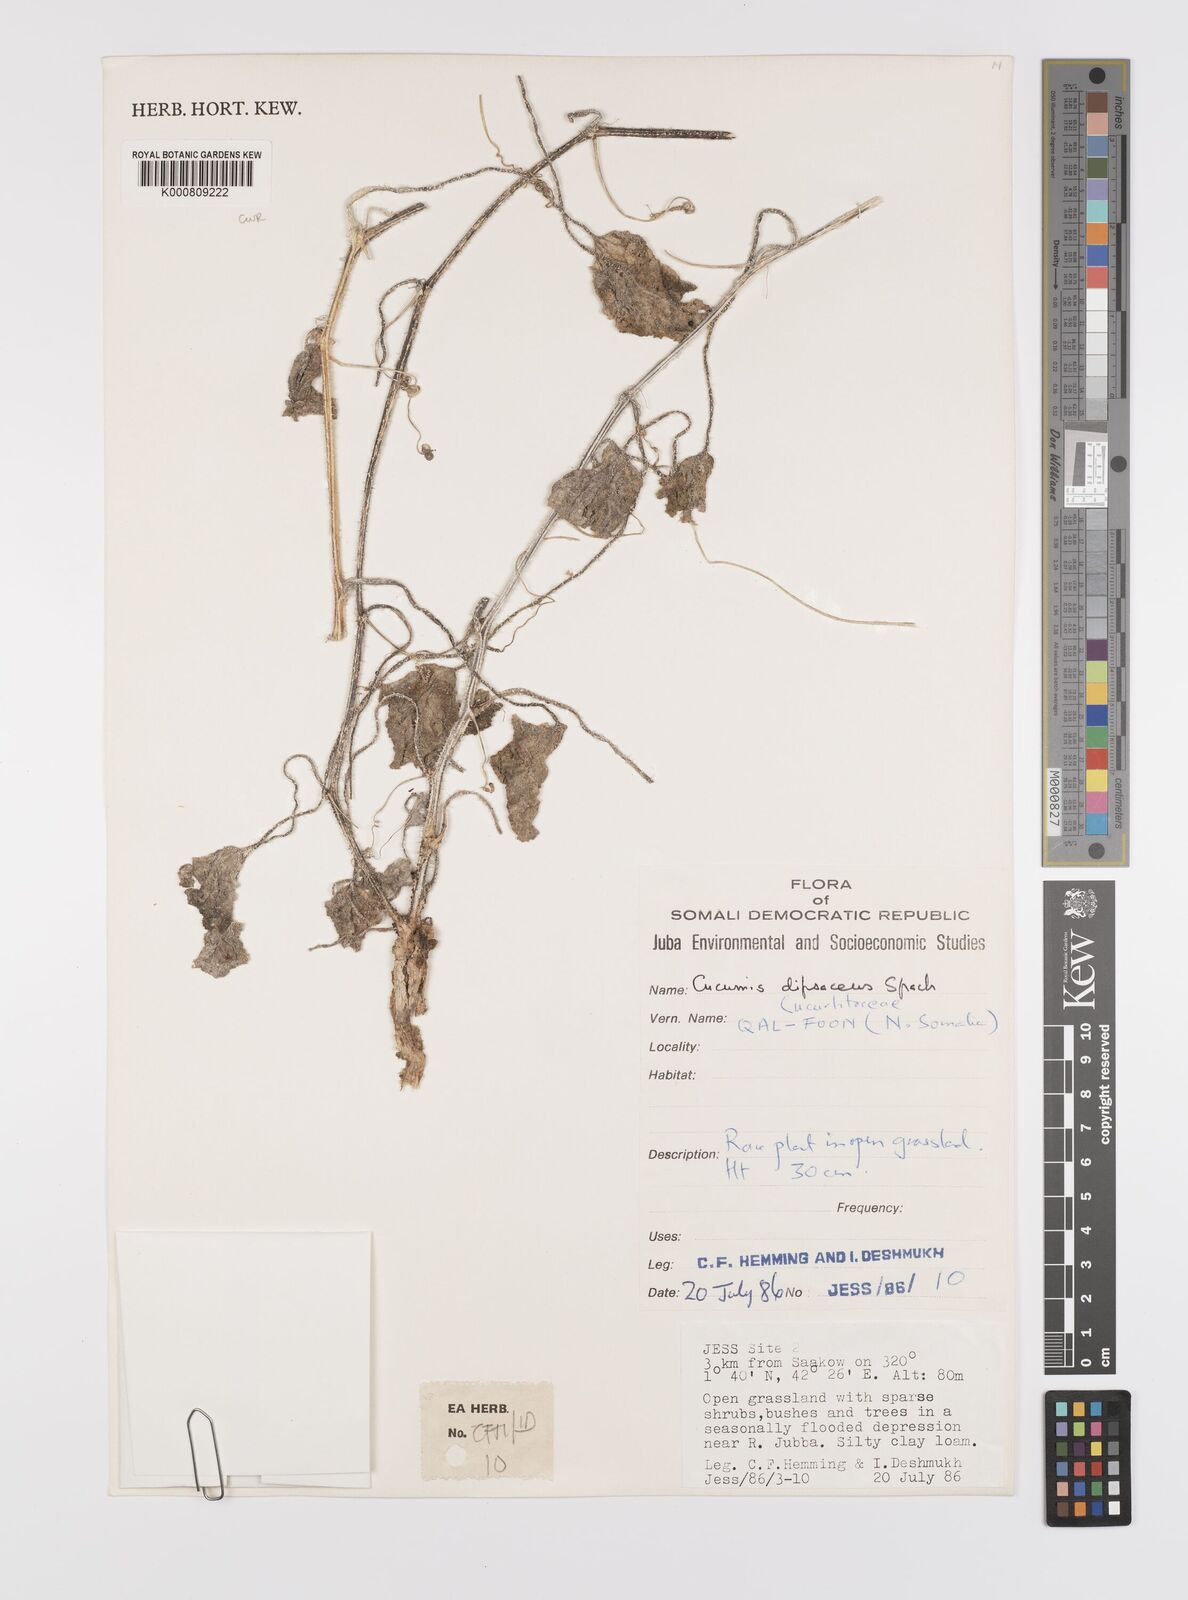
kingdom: Plantae
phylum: Tracheophyta
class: Magnoliopsida
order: Cucurbitales
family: Cucurbitaceae
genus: Cucumis
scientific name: Cucumis dipsaceus
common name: Hedgehog gourd
